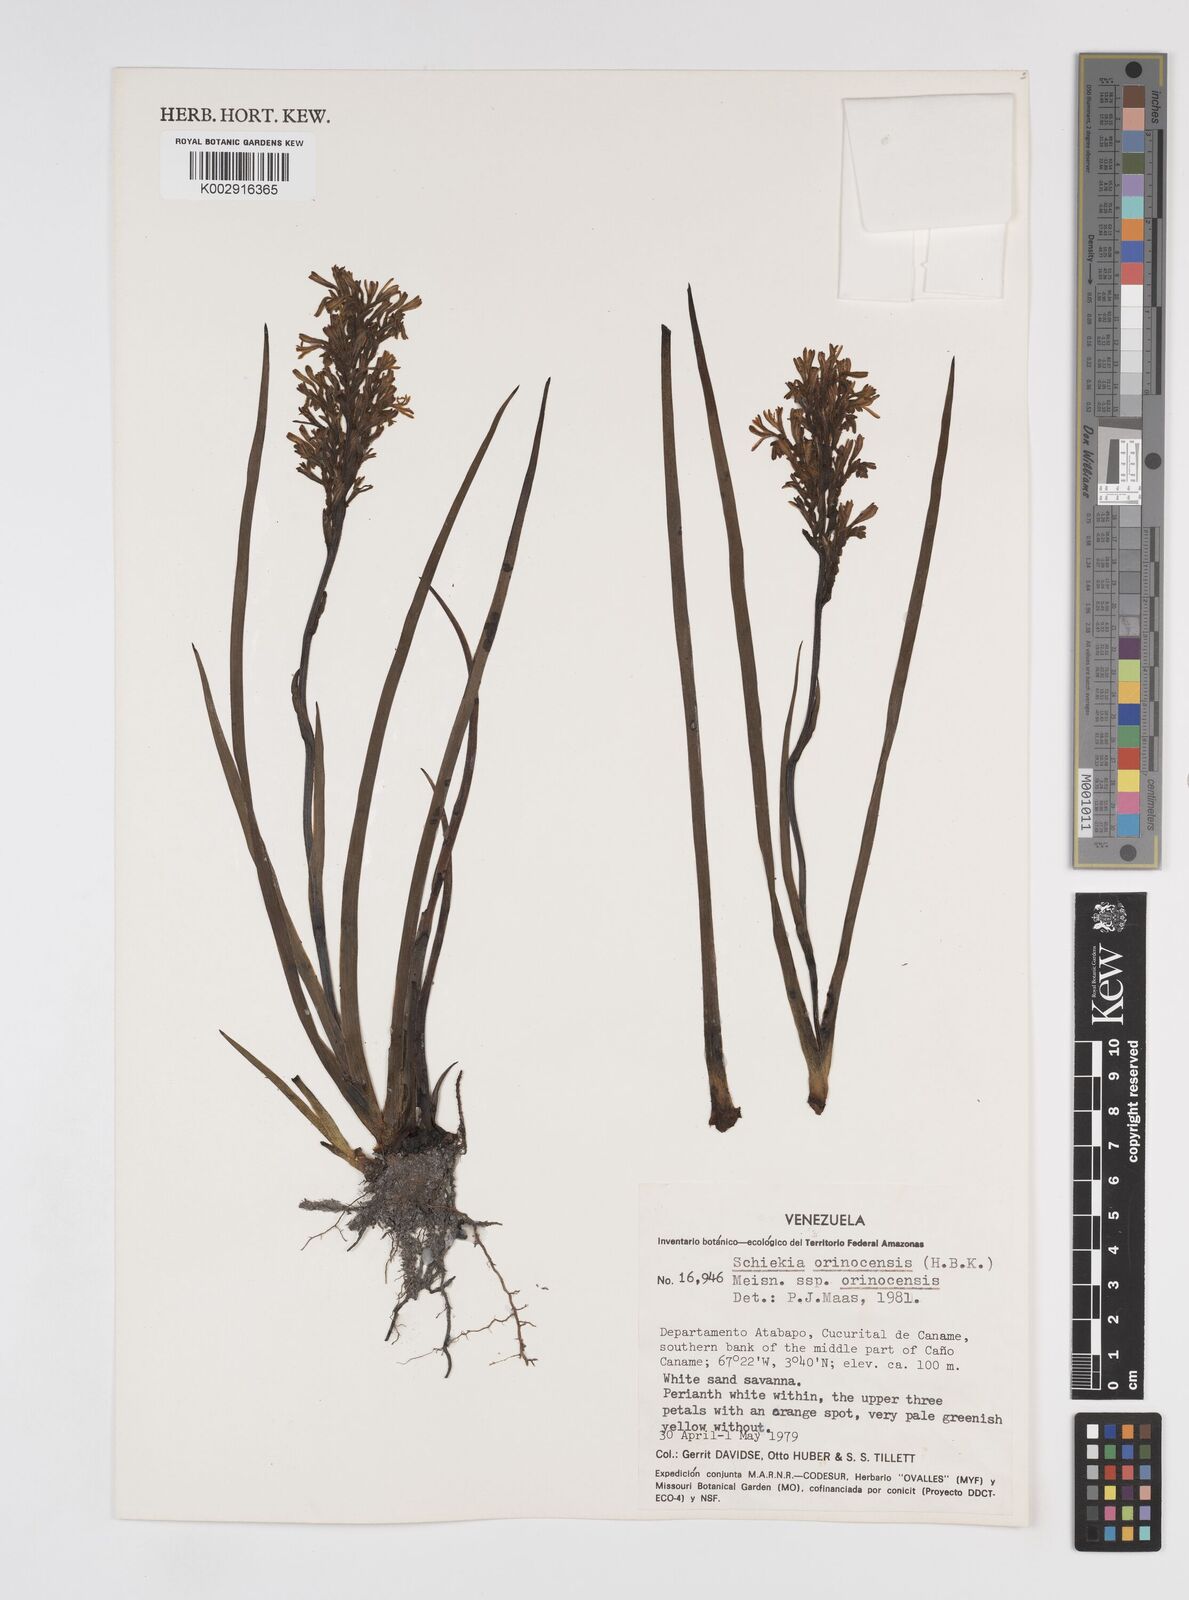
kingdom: Plantae
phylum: Tracheophyta
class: Liliopsida
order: Commelinales
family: Haemodoraceae
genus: Schiekia
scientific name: Schiekia orinocensis
